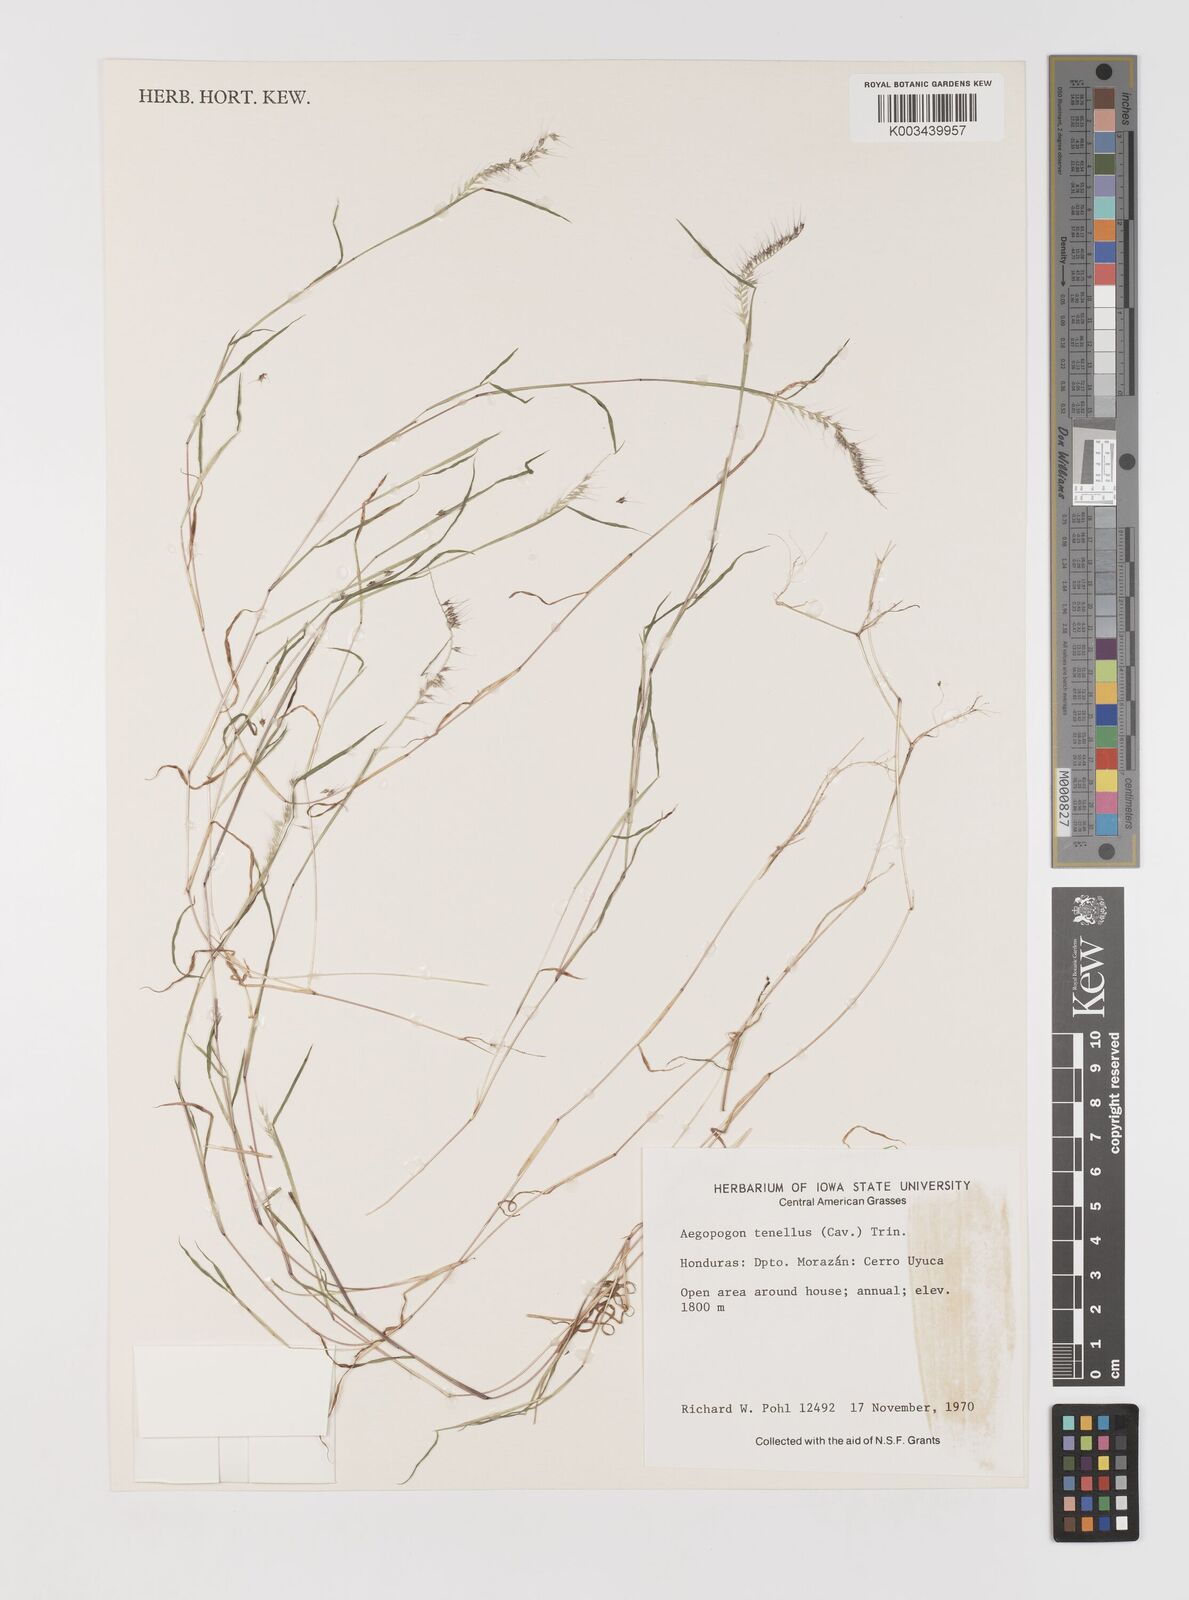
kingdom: Plantae
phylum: Tracheophyta
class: Liliopsida
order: Poales
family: Poaceae
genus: Muhlenbergia
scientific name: Muhlenbergia uniseta
